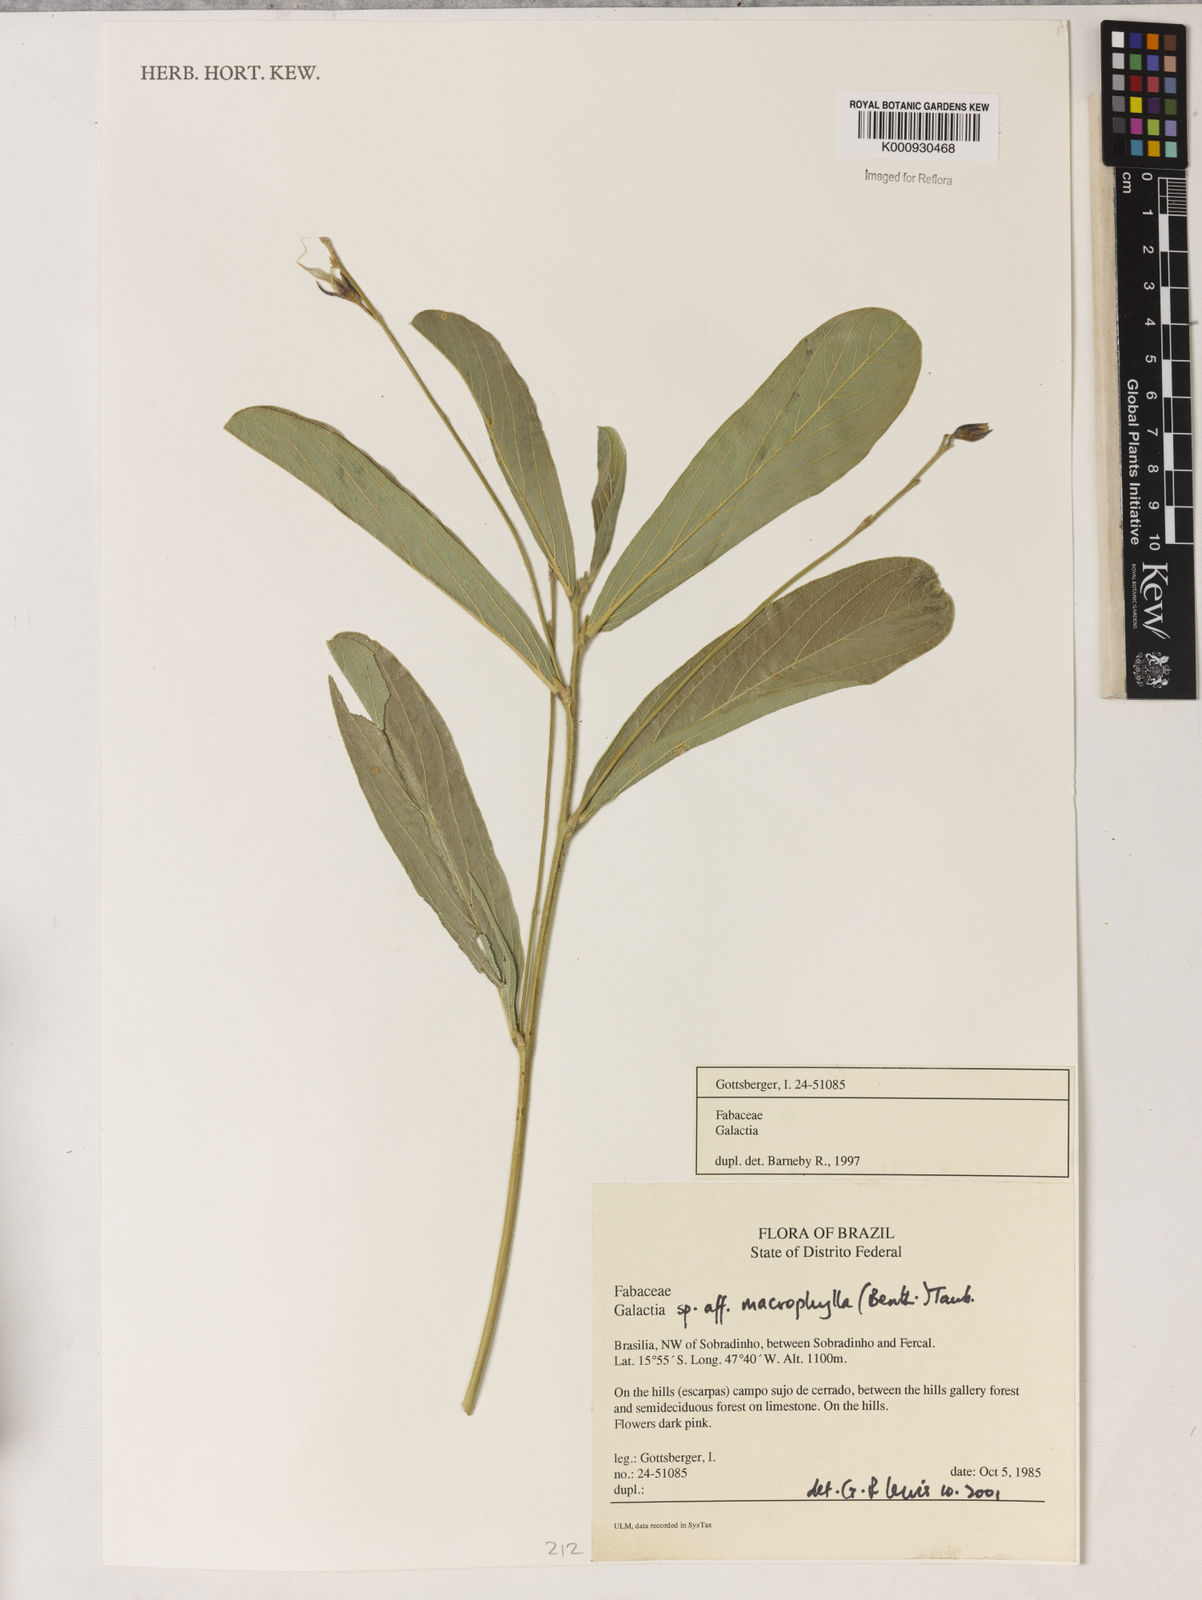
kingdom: Plantae
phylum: Tracheophyta
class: Magnoliopsida
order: Fabales
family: Fabaceae
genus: Cerradicola
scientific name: Cerradicola boavista
